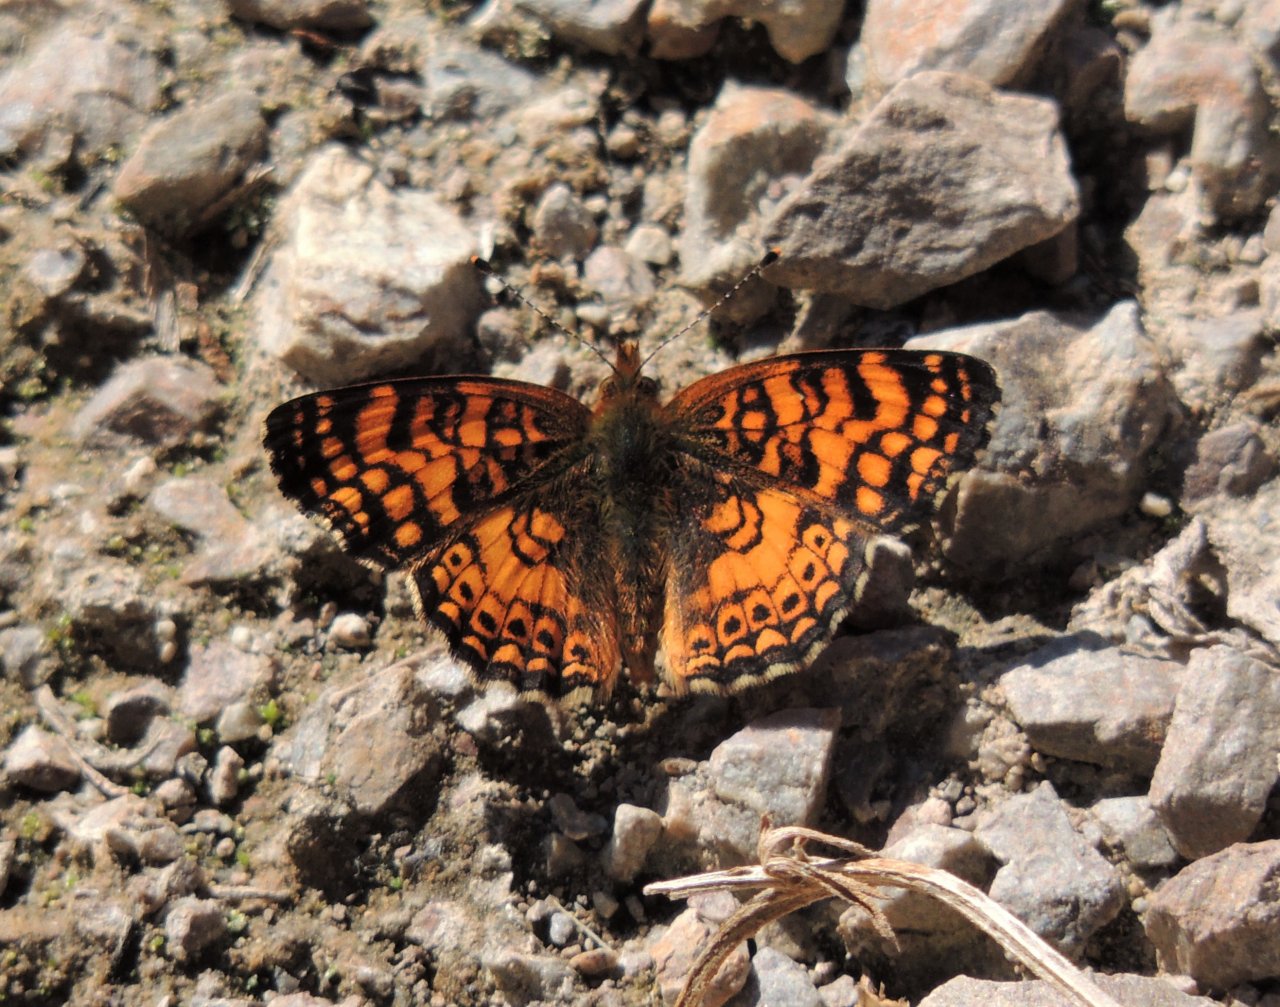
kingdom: Animalia
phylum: Arthropoda
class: Insecta
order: Lepidoptera
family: Nymphalidae
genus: Eresia
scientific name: Eresia aveyrona
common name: Mylitta Crescent
